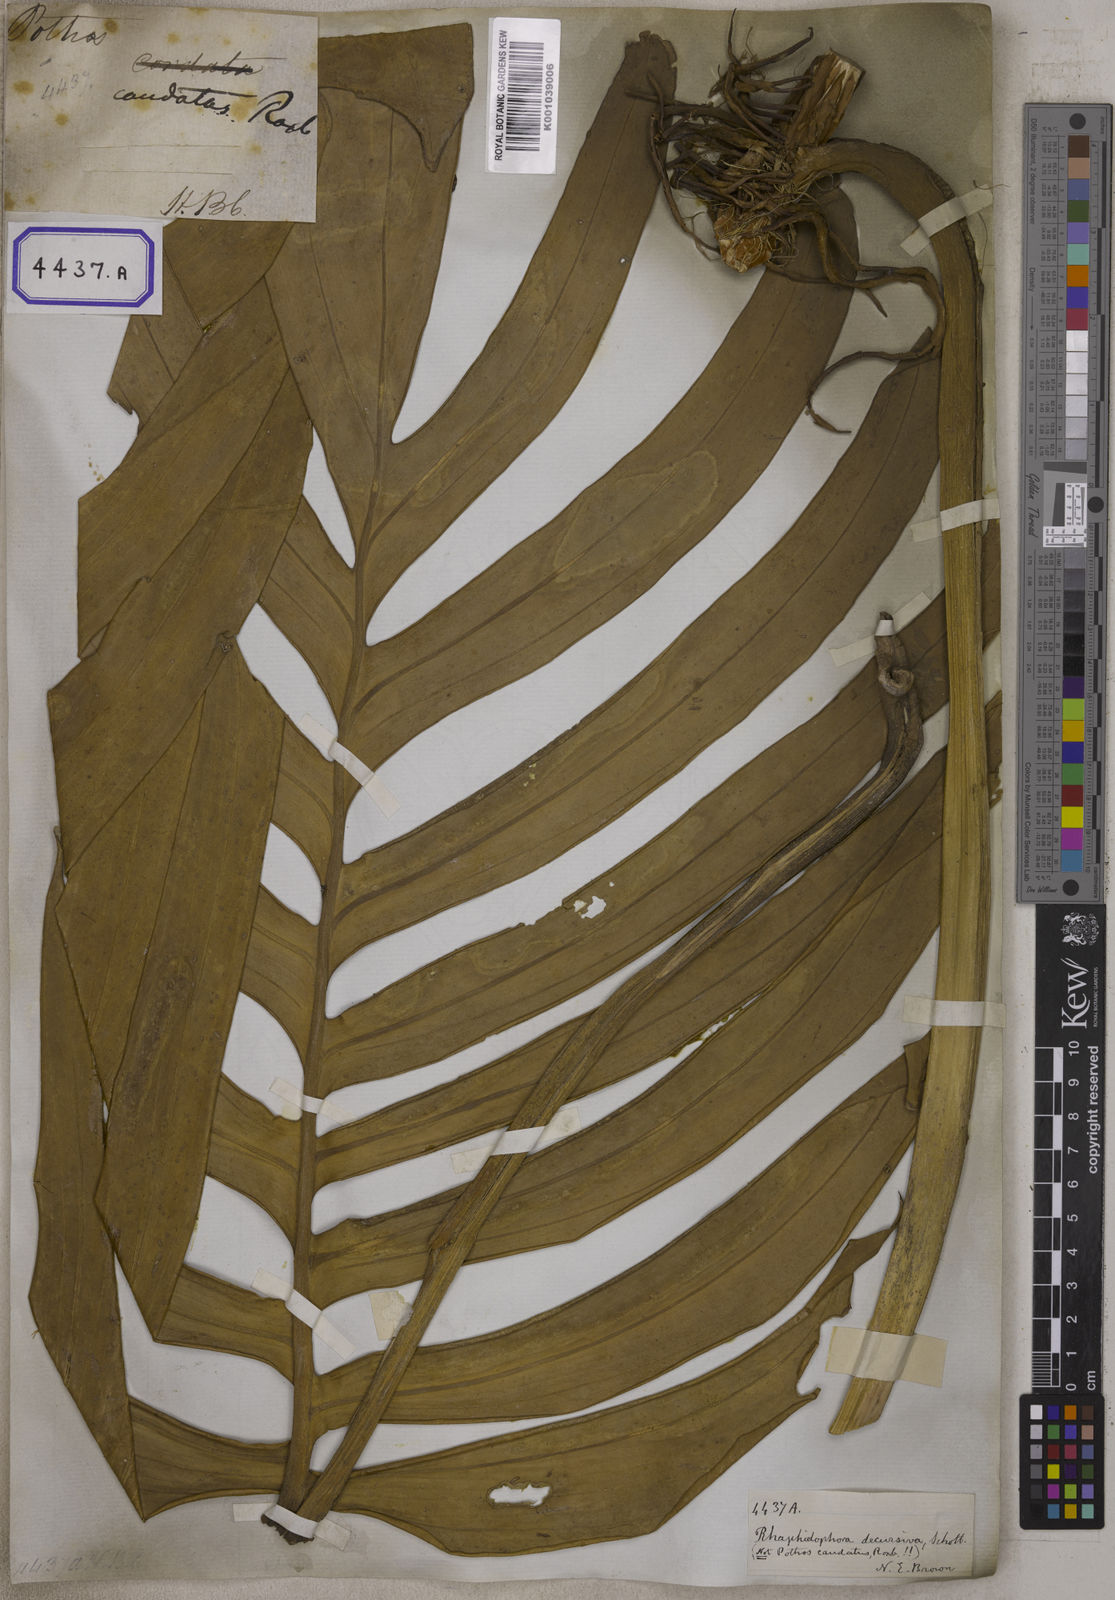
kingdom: Plantae
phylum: Tracheophyta
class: Liliopsida
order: Alismatales
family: Araceae
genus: Epipremnum
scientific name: Epipremnum pinnatum
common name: Centipede tongavine
